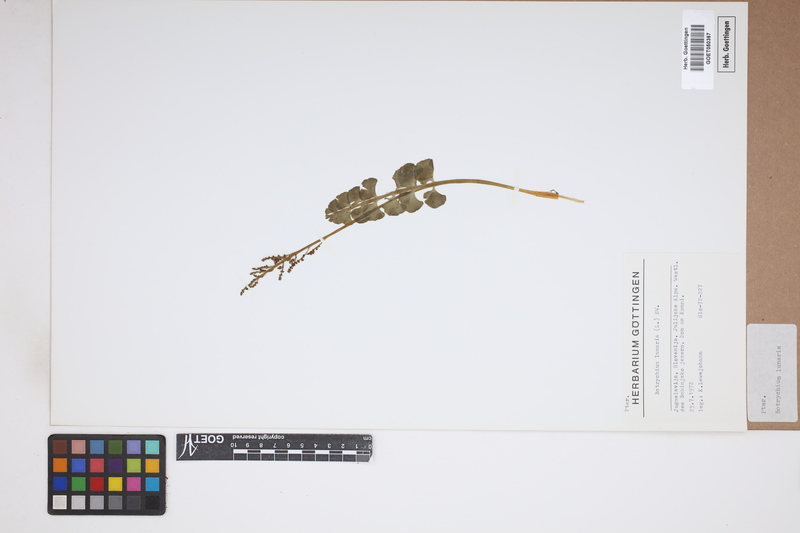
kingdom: Plantae
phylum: Tracheophyta
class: Polypodiopsida
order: Ophioglossales
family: Ophioglossaceae
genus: Botrychium
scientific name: Botrychium lunaria
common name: Moonwort
